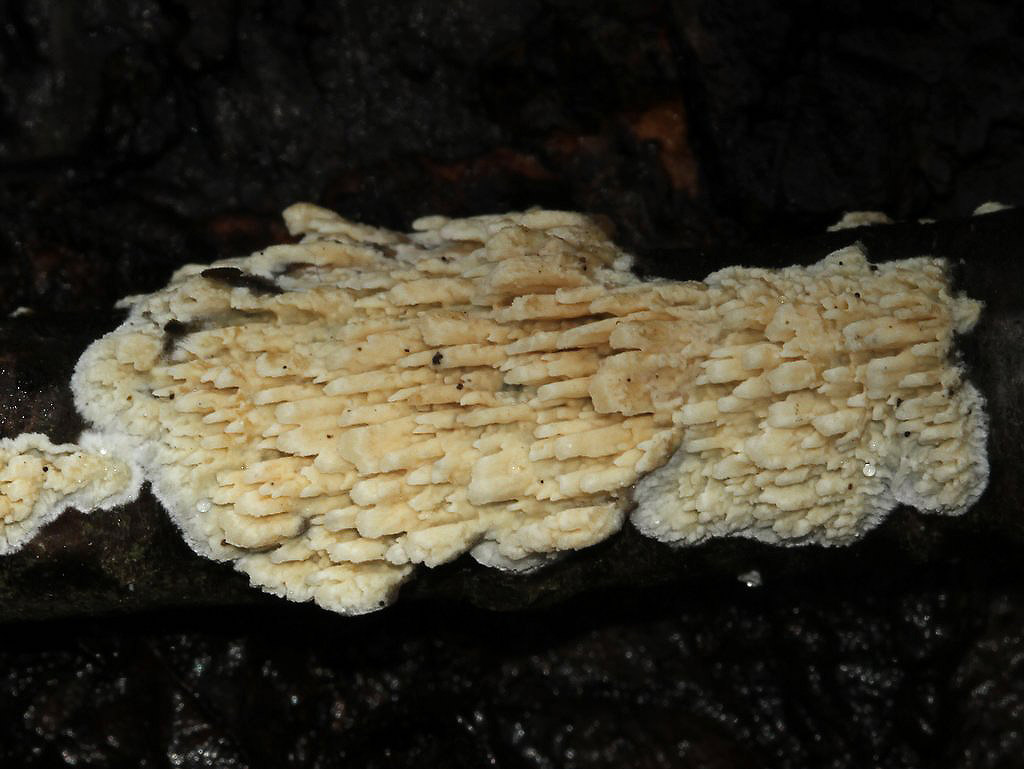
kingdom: Fungi
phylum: Basidiomycota
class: Agaricomycetes
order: Hymenochaetales
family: Schizoporaceae
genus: Xylodon
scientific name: Xylodon radula
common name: grovtandet kalkskind
